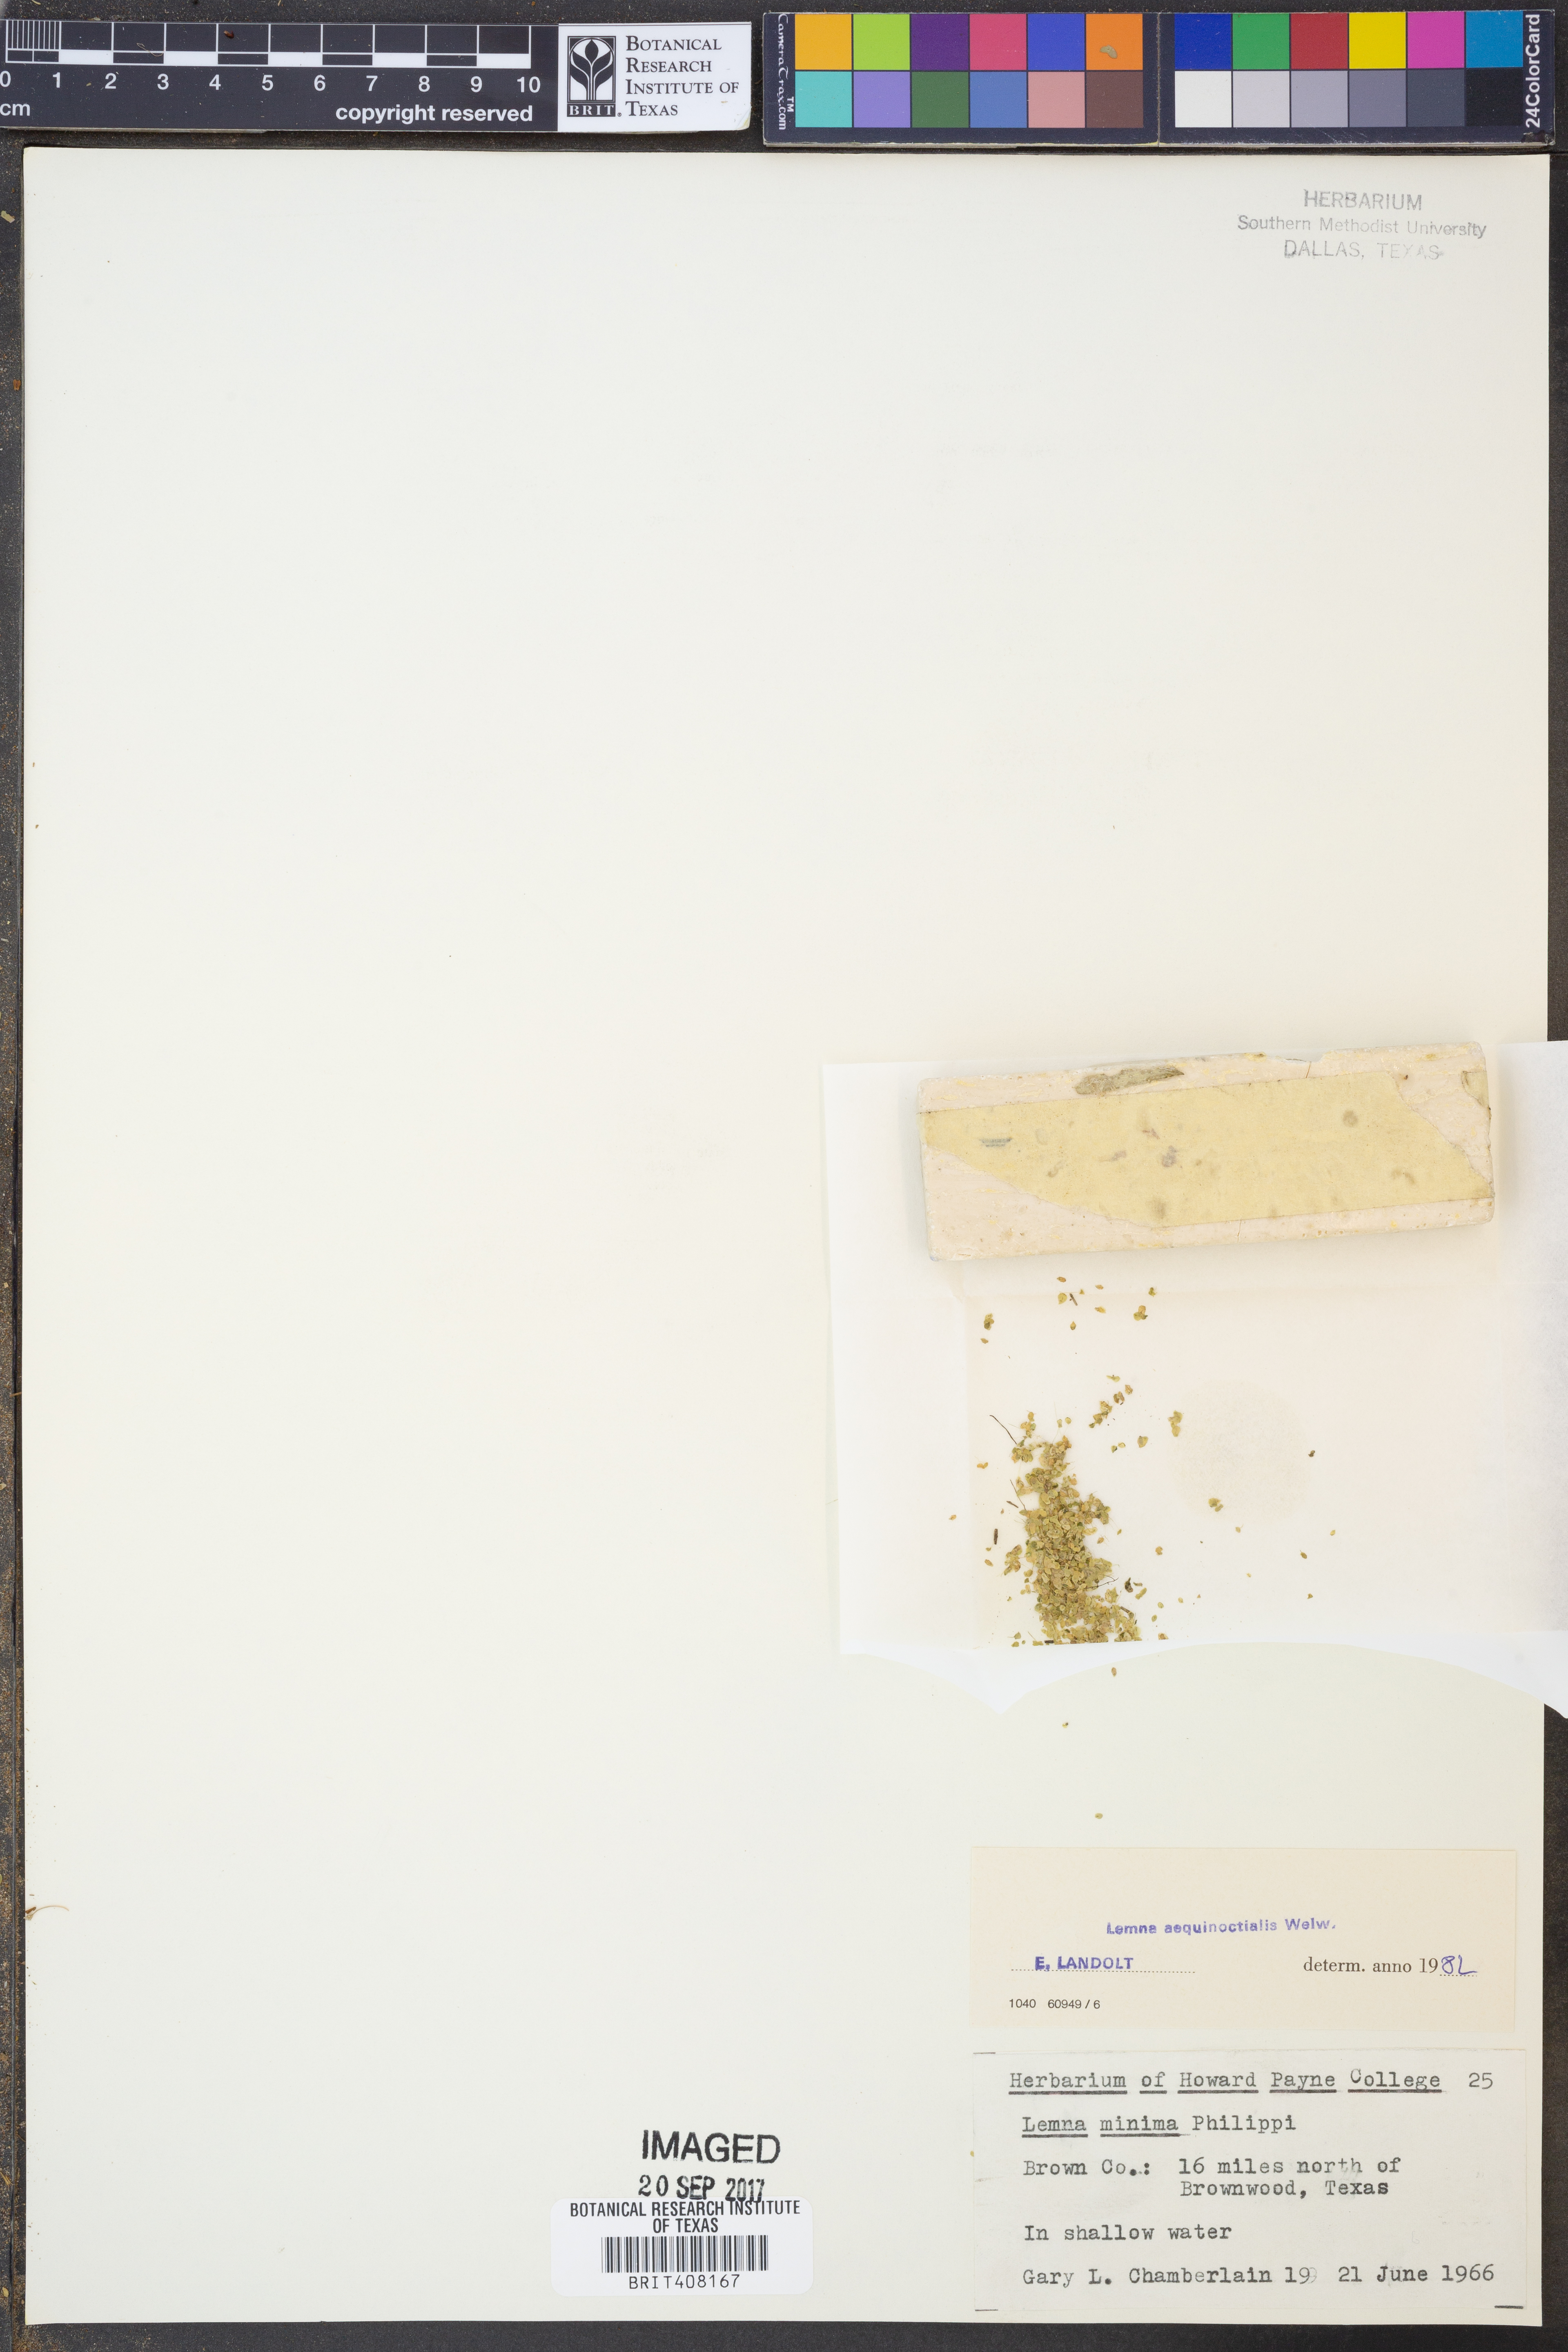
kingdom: Plantae
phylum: Tracheophyta
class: Liliopsida
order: Alismatales
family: Araceae
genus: Lemna
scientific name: Lemna aequinoctialis
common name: Duckweed
